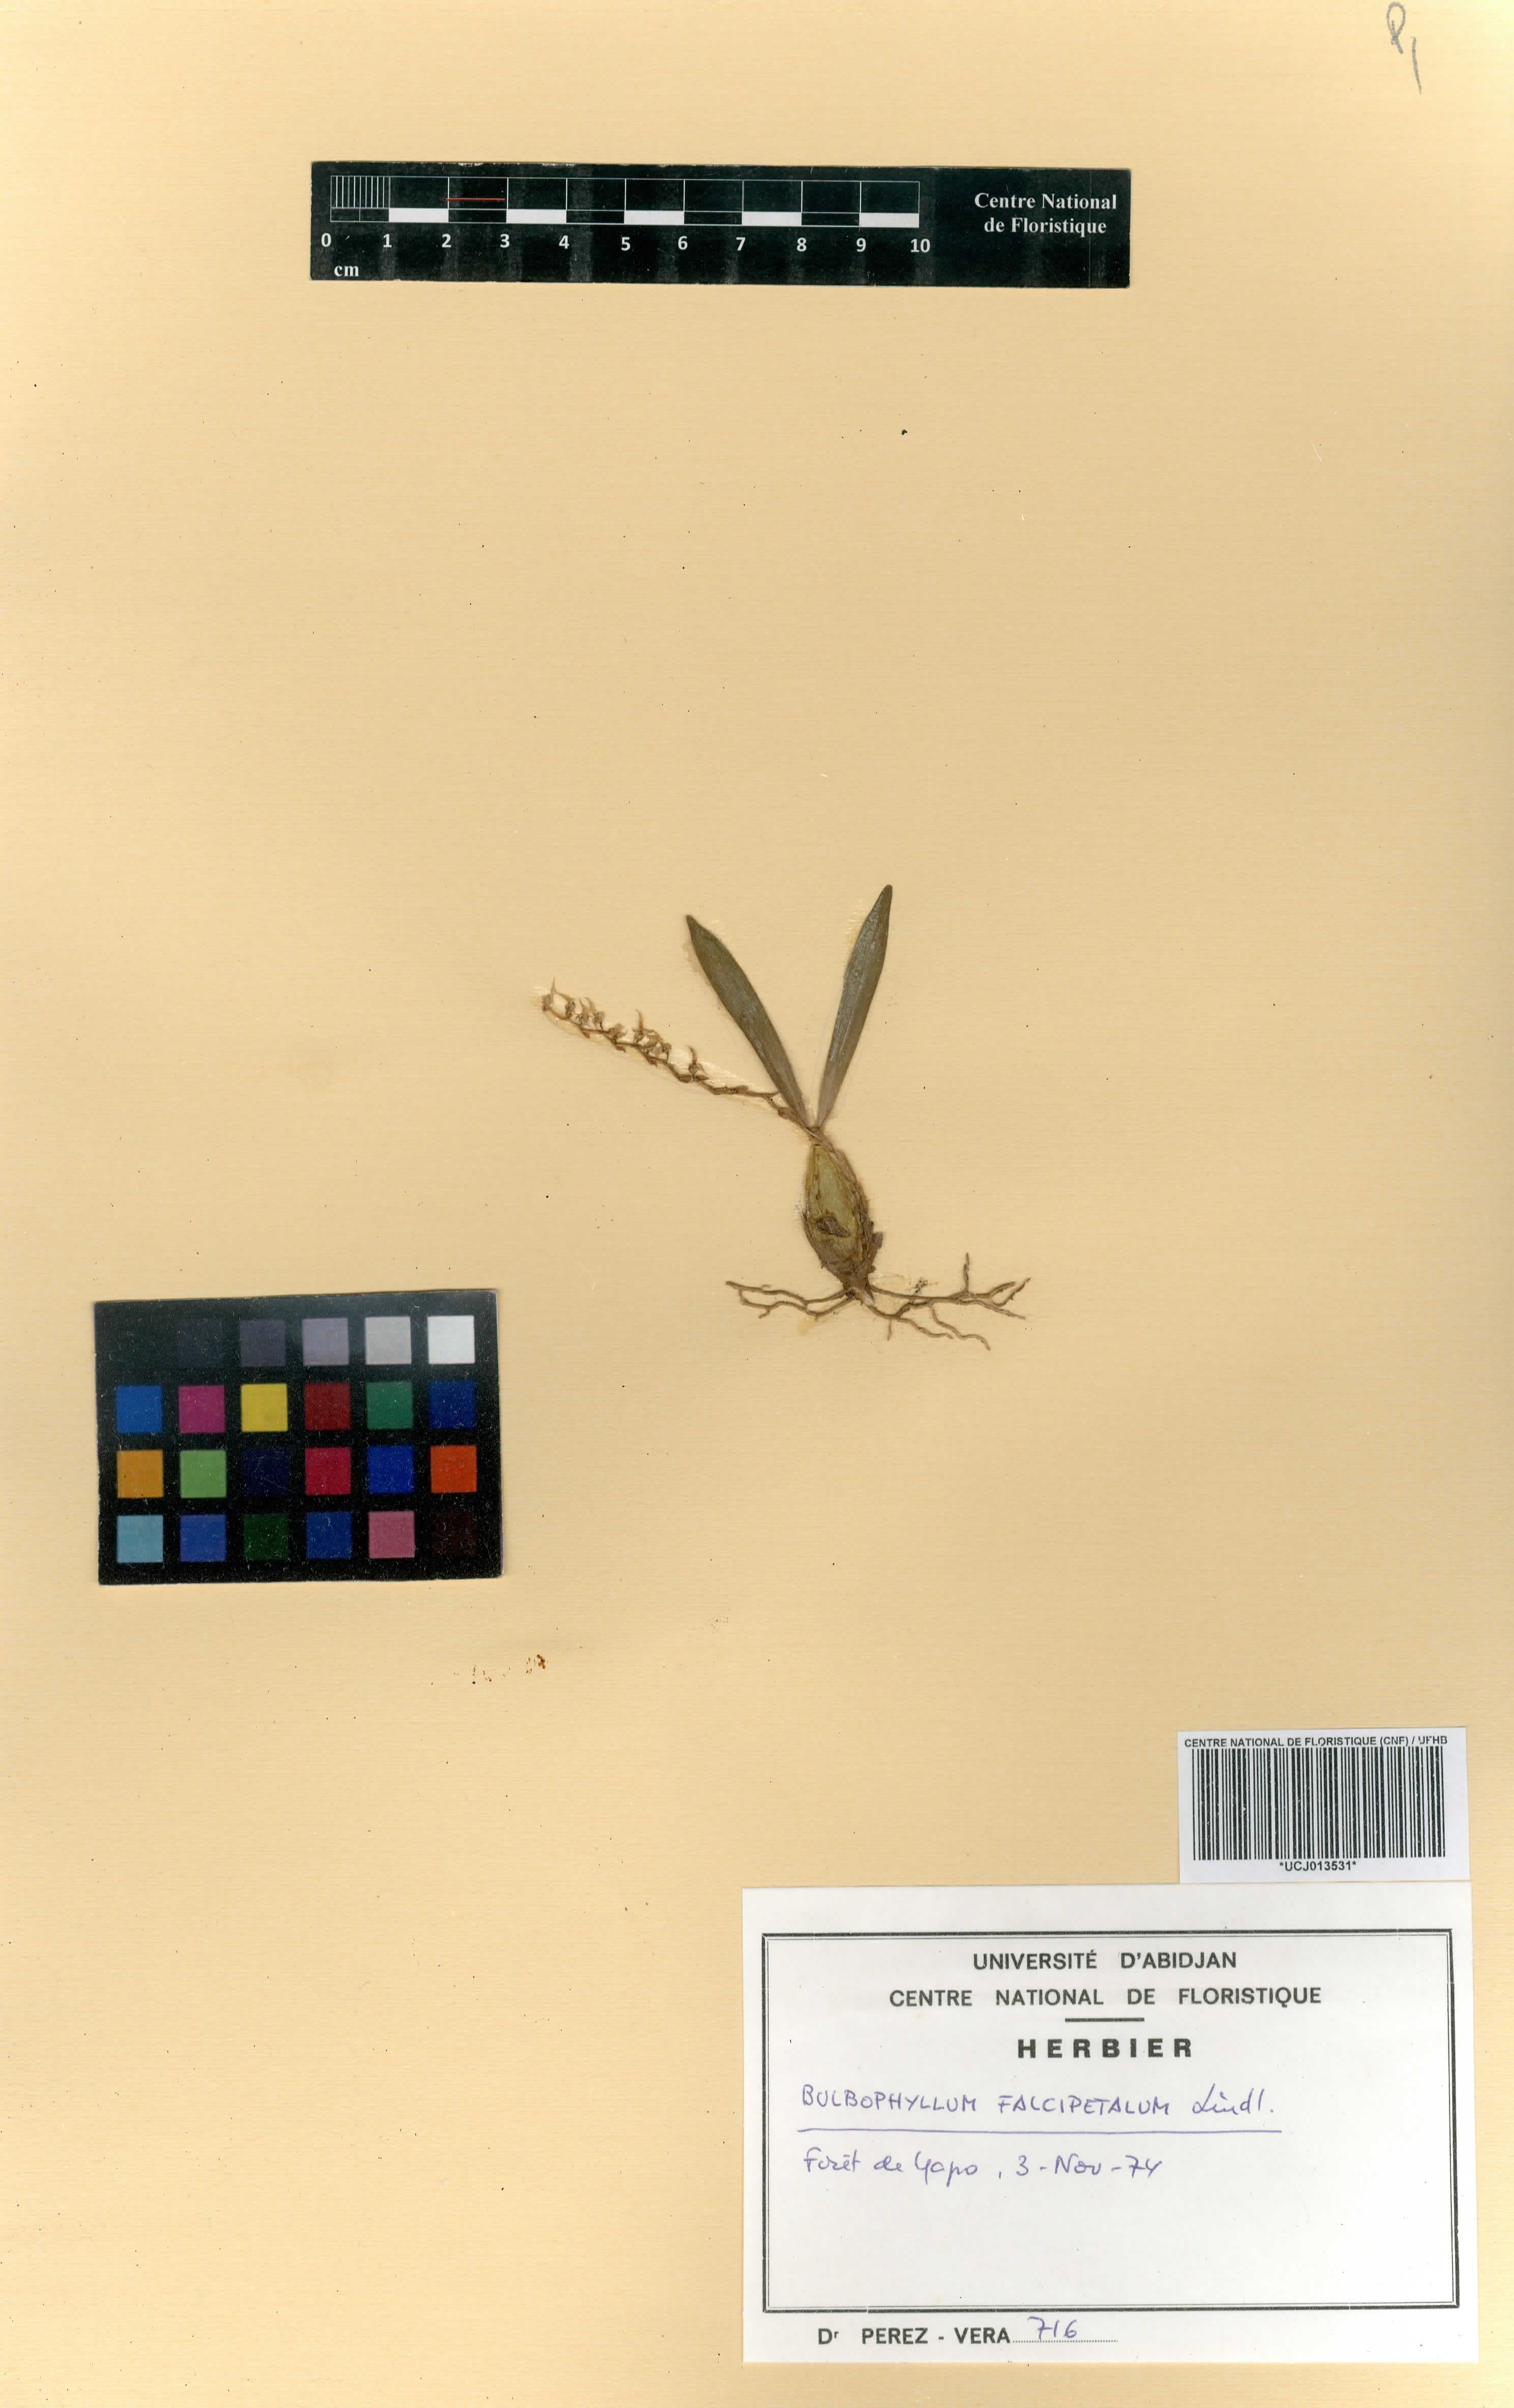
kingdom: Plantae
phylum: Tracheophyta
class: Liliopsida
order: Asparagales
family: Orchidaceae
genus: Bulbophyllum
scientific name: Bulbophyllum falcipetalum
